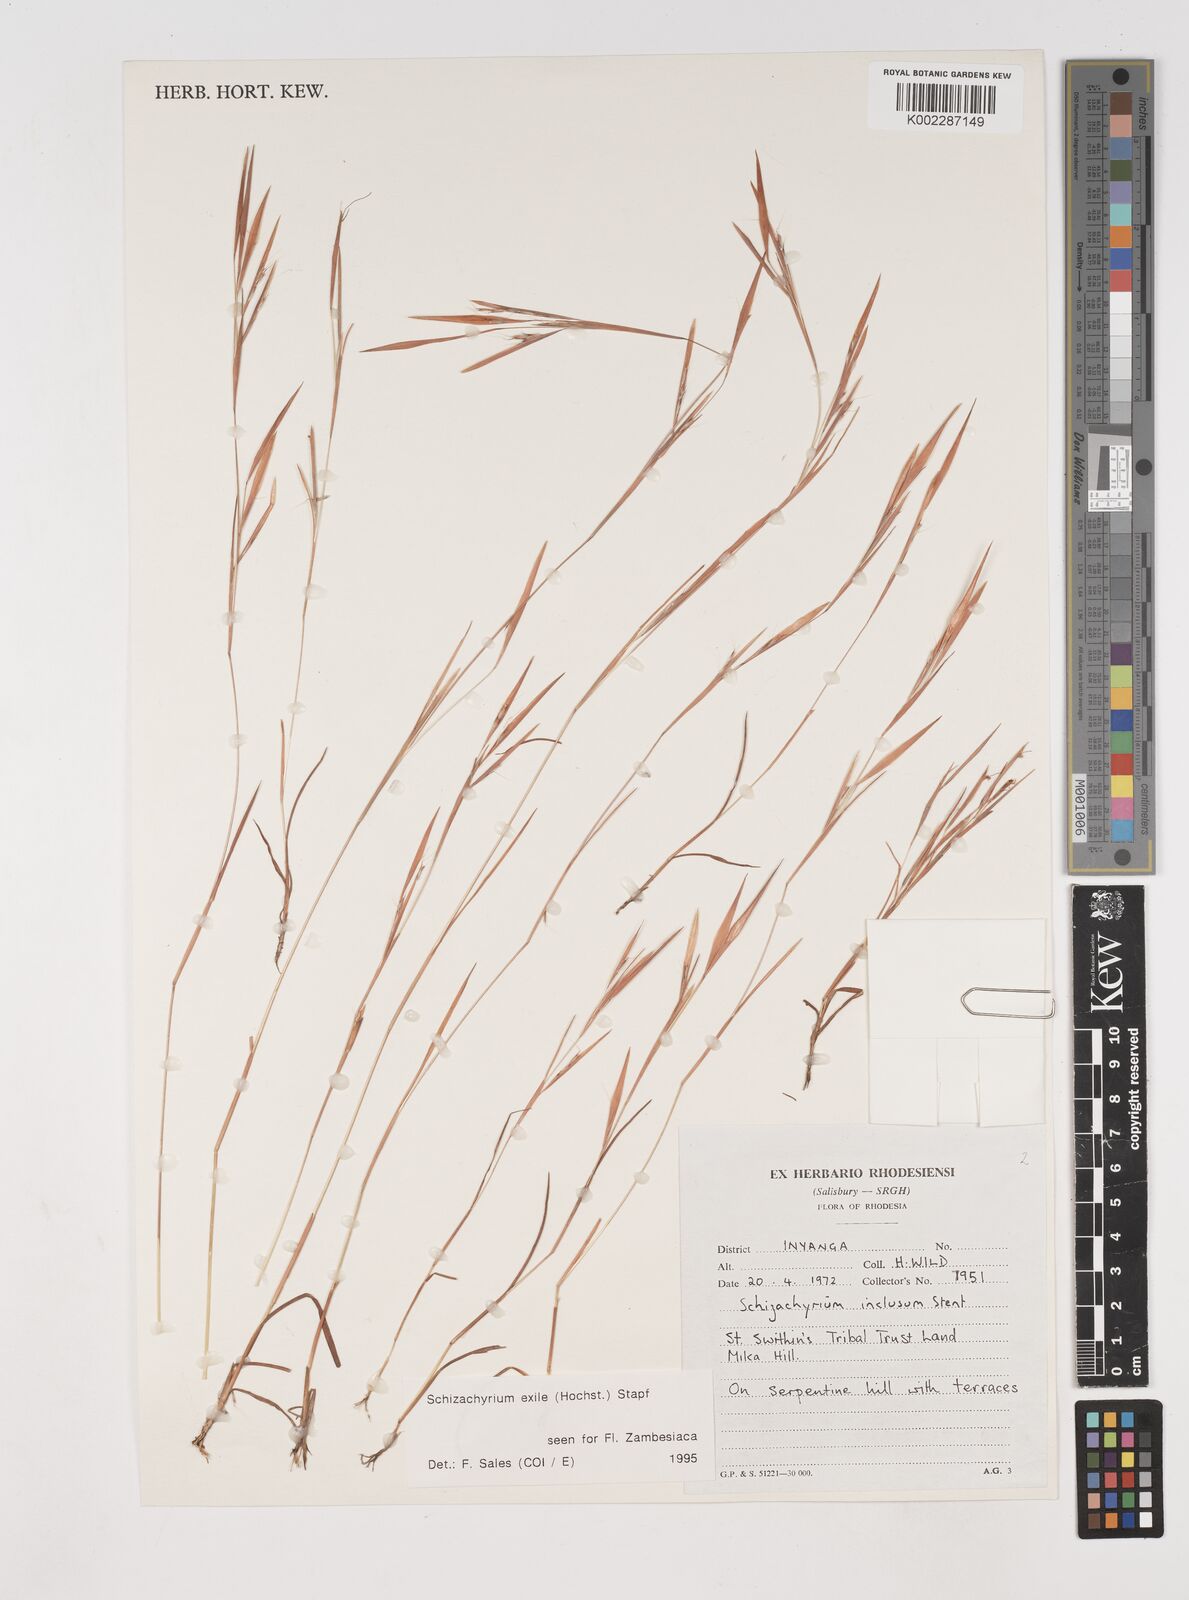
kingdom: Plantae
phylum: Tracheophyta
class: Liliopsida
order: Poales
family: Poaceae
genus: Schizachyrium
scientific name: Schizachyrium exile
